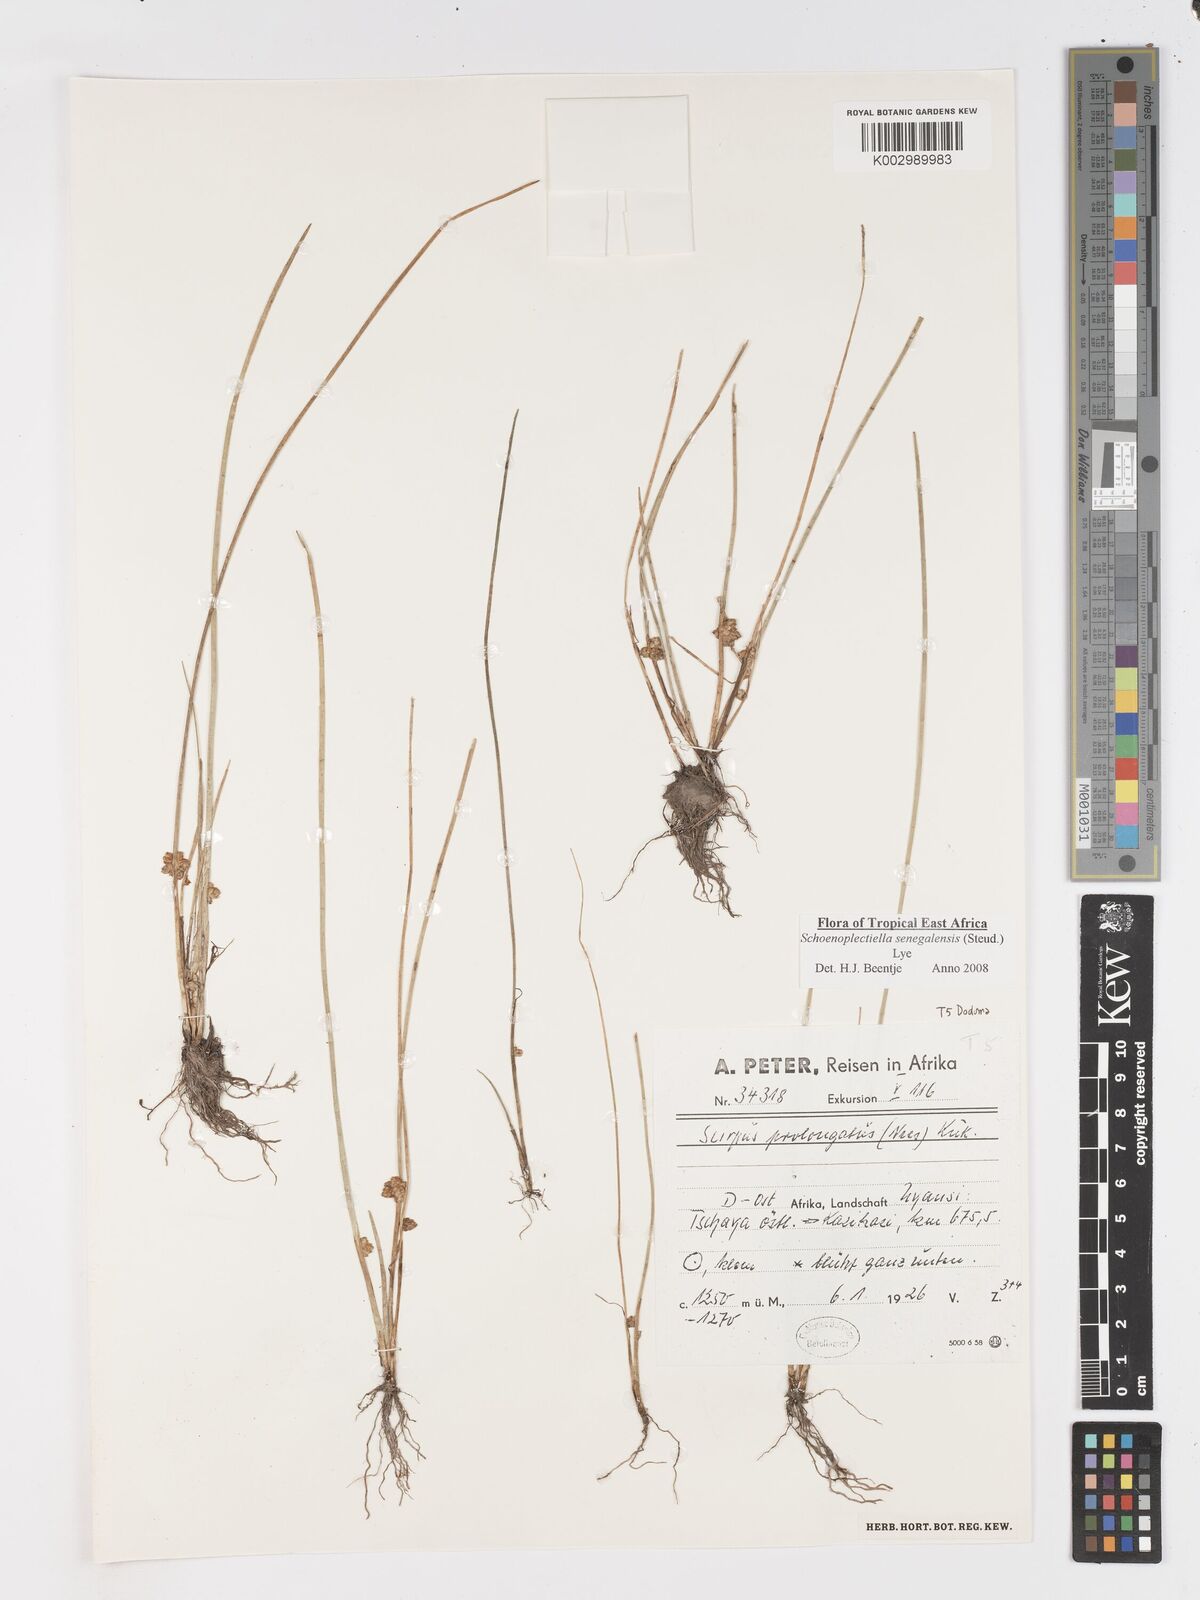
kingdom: Plantae
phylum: Tracheophyta
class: Liliopsida
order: Poales
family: Cyperaceae
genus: Schoenoplectiella
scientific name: Schoenoplectiella senegalensis
